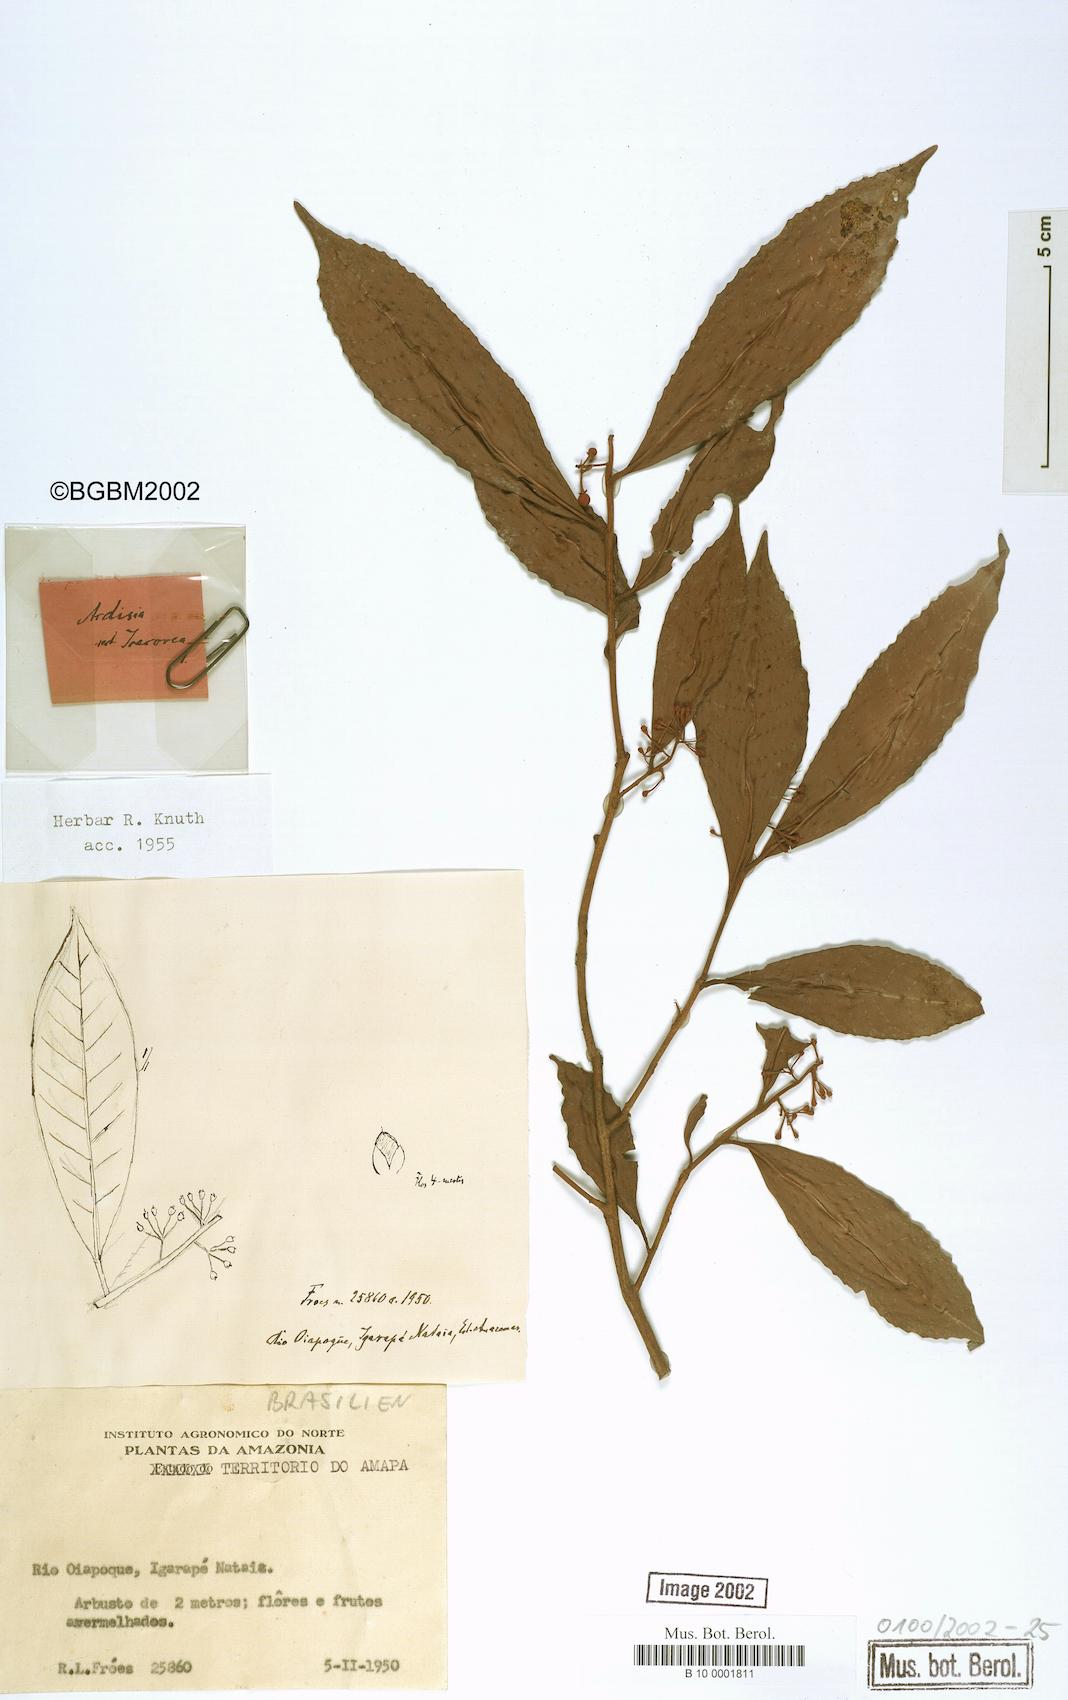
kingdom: Plantae
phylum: Tracheophyta
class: Magnoliopsida
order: Ericales
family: Primulaceae
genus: Ardisia
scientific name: Ardisia
